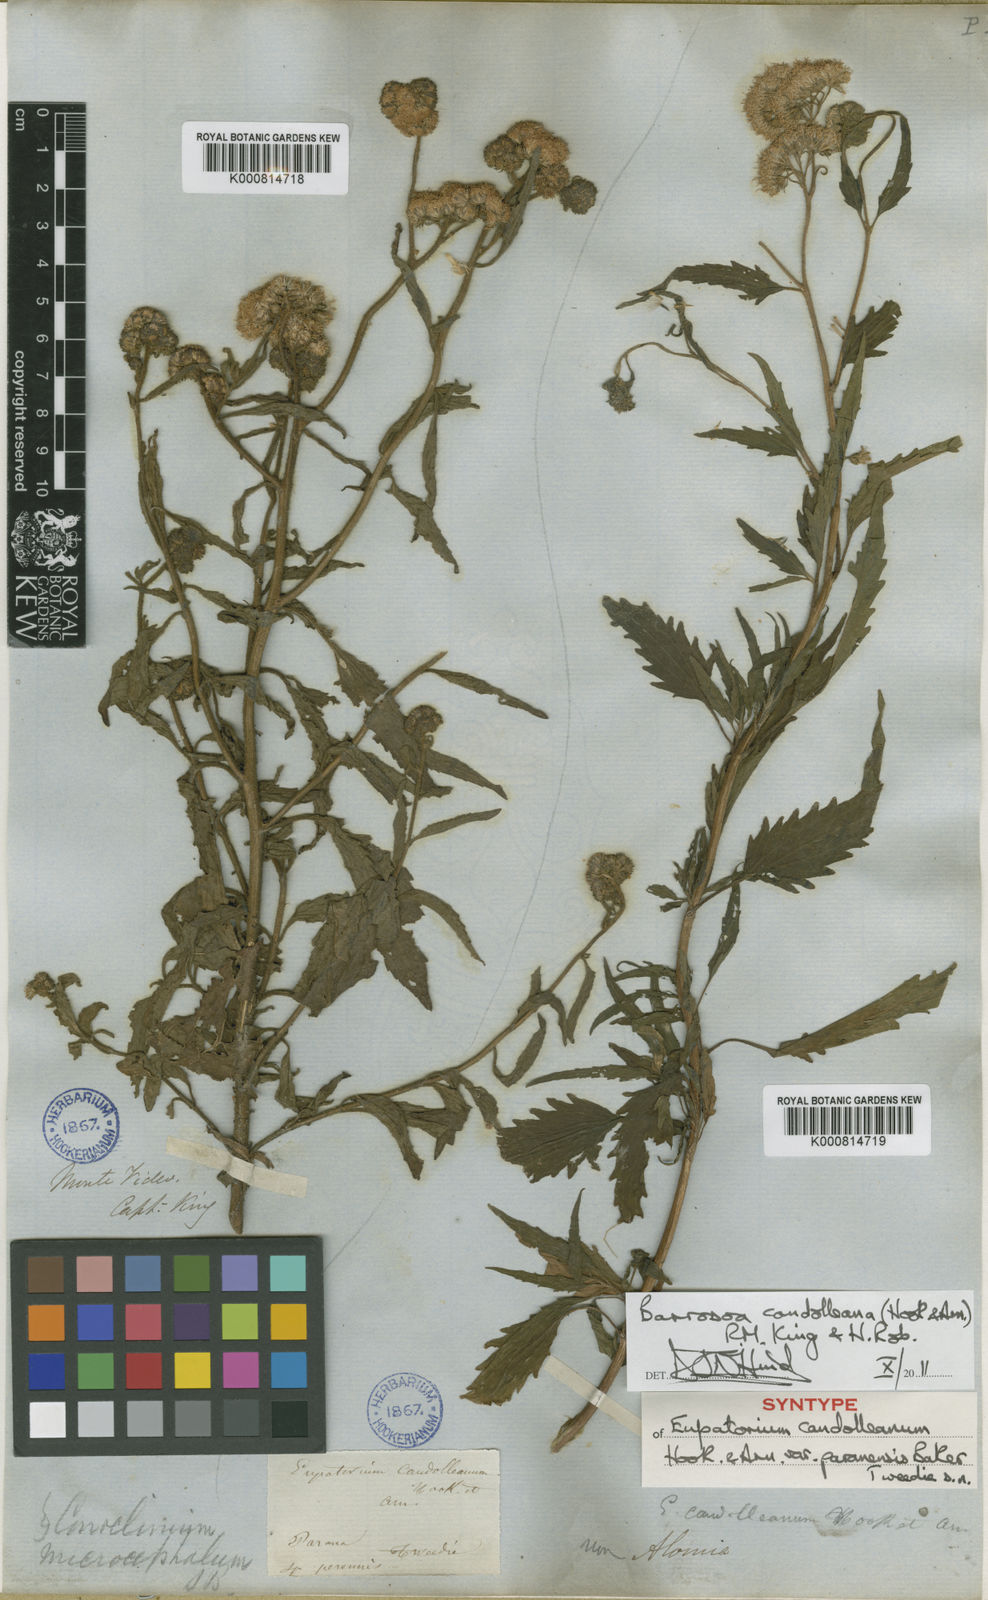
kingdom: Plantae
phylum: Tracheophyta
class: Magnoliopsida
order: Asterales
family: Asteraceae
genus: Barrosoa
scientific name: Barrosoa candolleana
